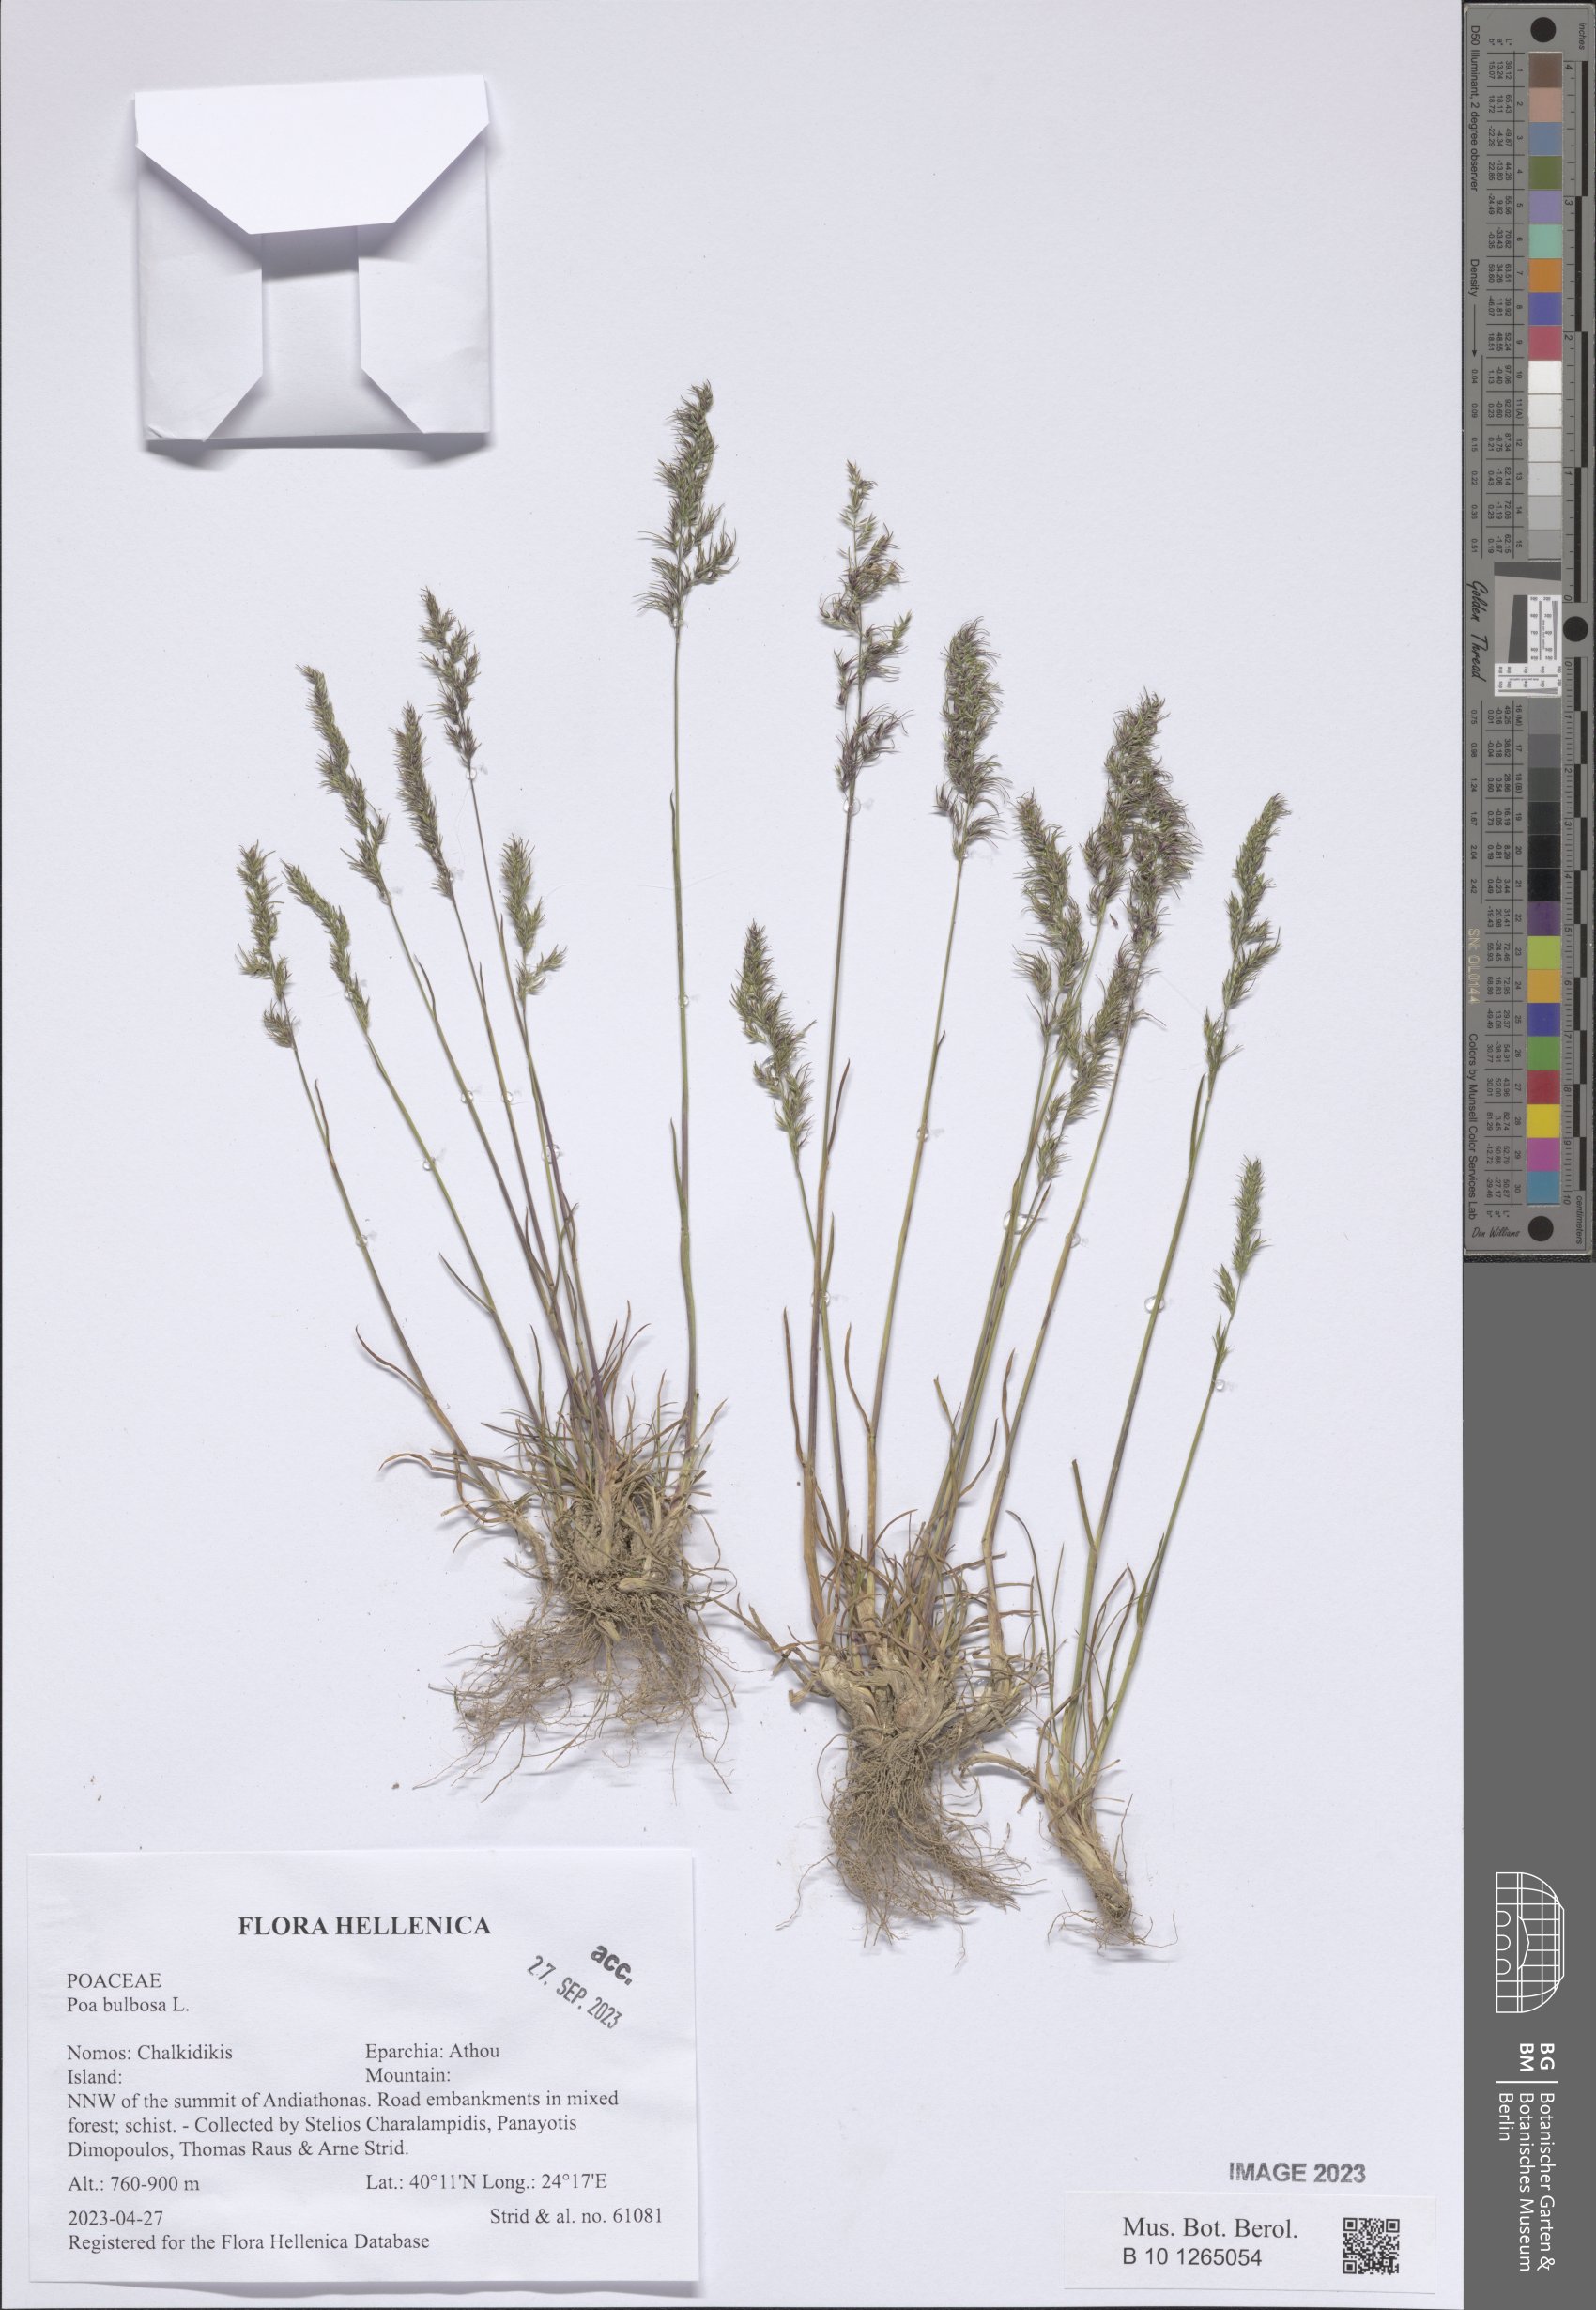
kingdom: Plantae
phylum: Tracheophyta
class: Liliopsida
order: Poales
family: Poaceae
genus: Poa
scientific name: Poa bulbosa
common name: Bulbous bluegrass
